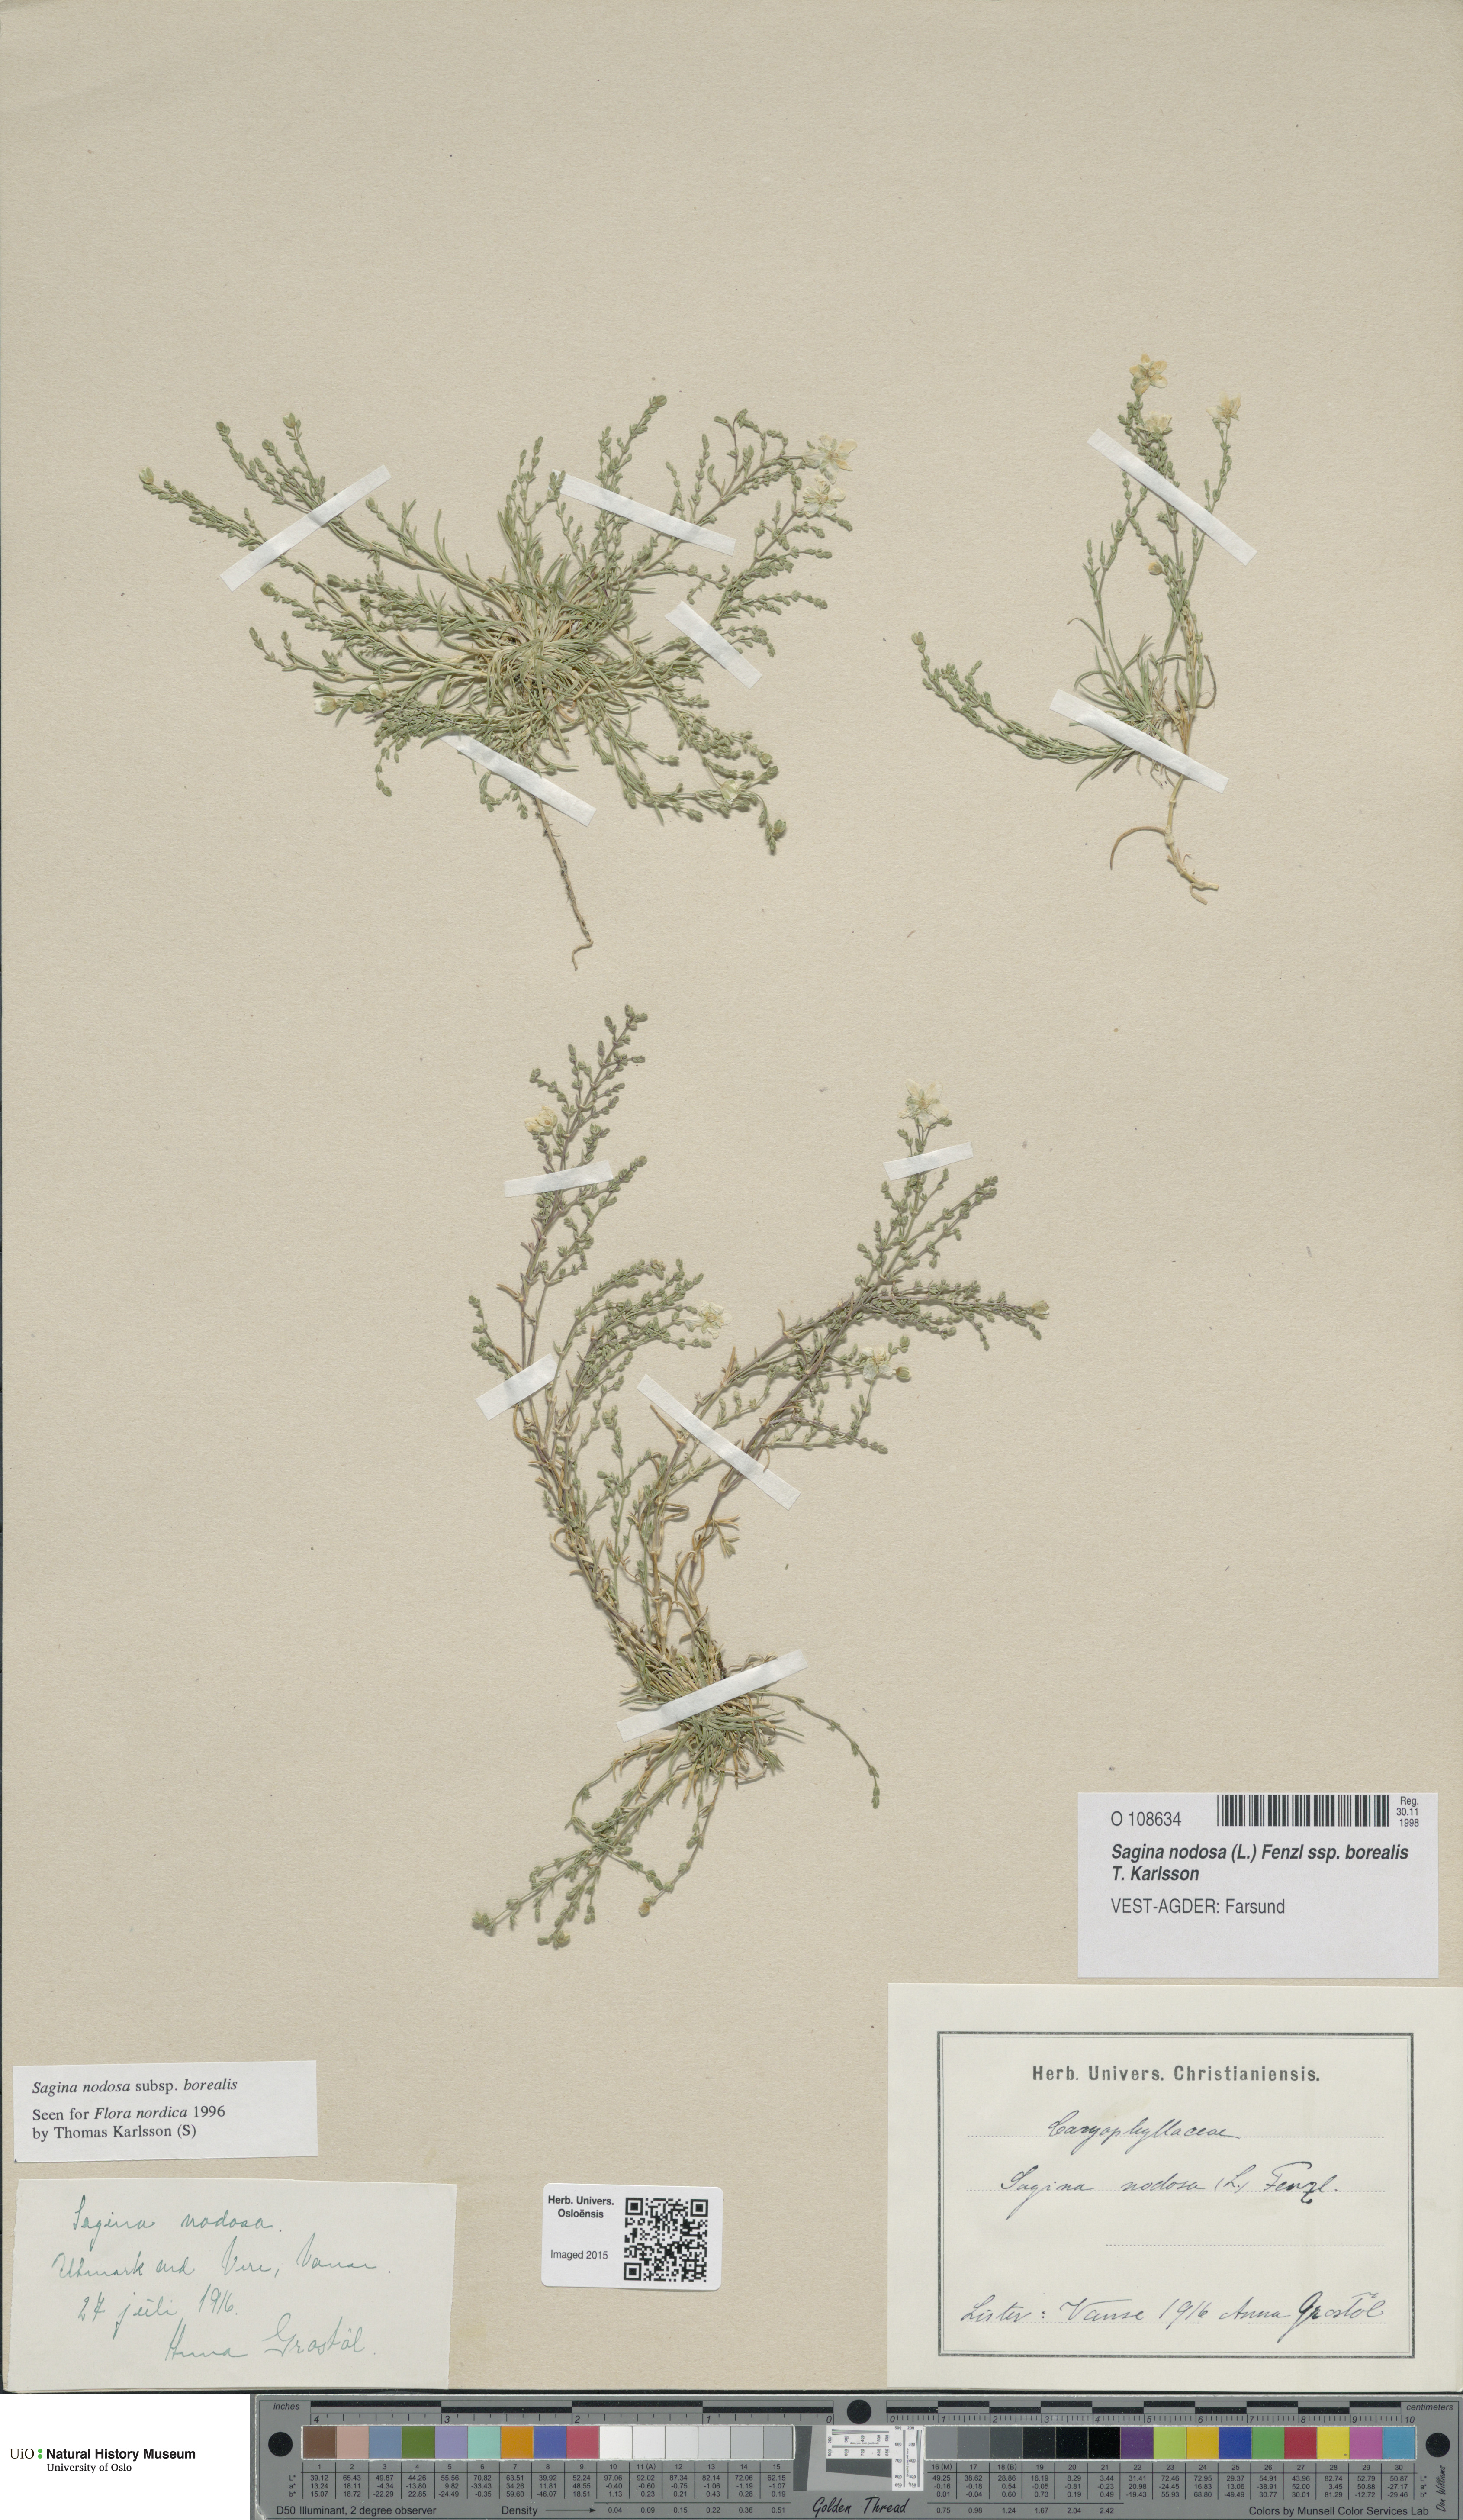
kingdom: Plantae
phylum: Tracheophyta
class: Magnoliopsida
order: Caryophyllales
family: Caryophyllaceae
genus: Sagina
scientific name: Sagina nodosa
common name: Knotted pearlwort
